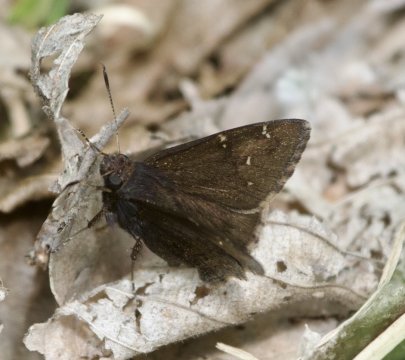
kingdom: Animalia
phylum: Arthropoda
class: Insecta
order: Lepidoptera
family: Hesperiidae
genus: Autochton
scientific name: Autochton
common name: Northern Cloudywing
